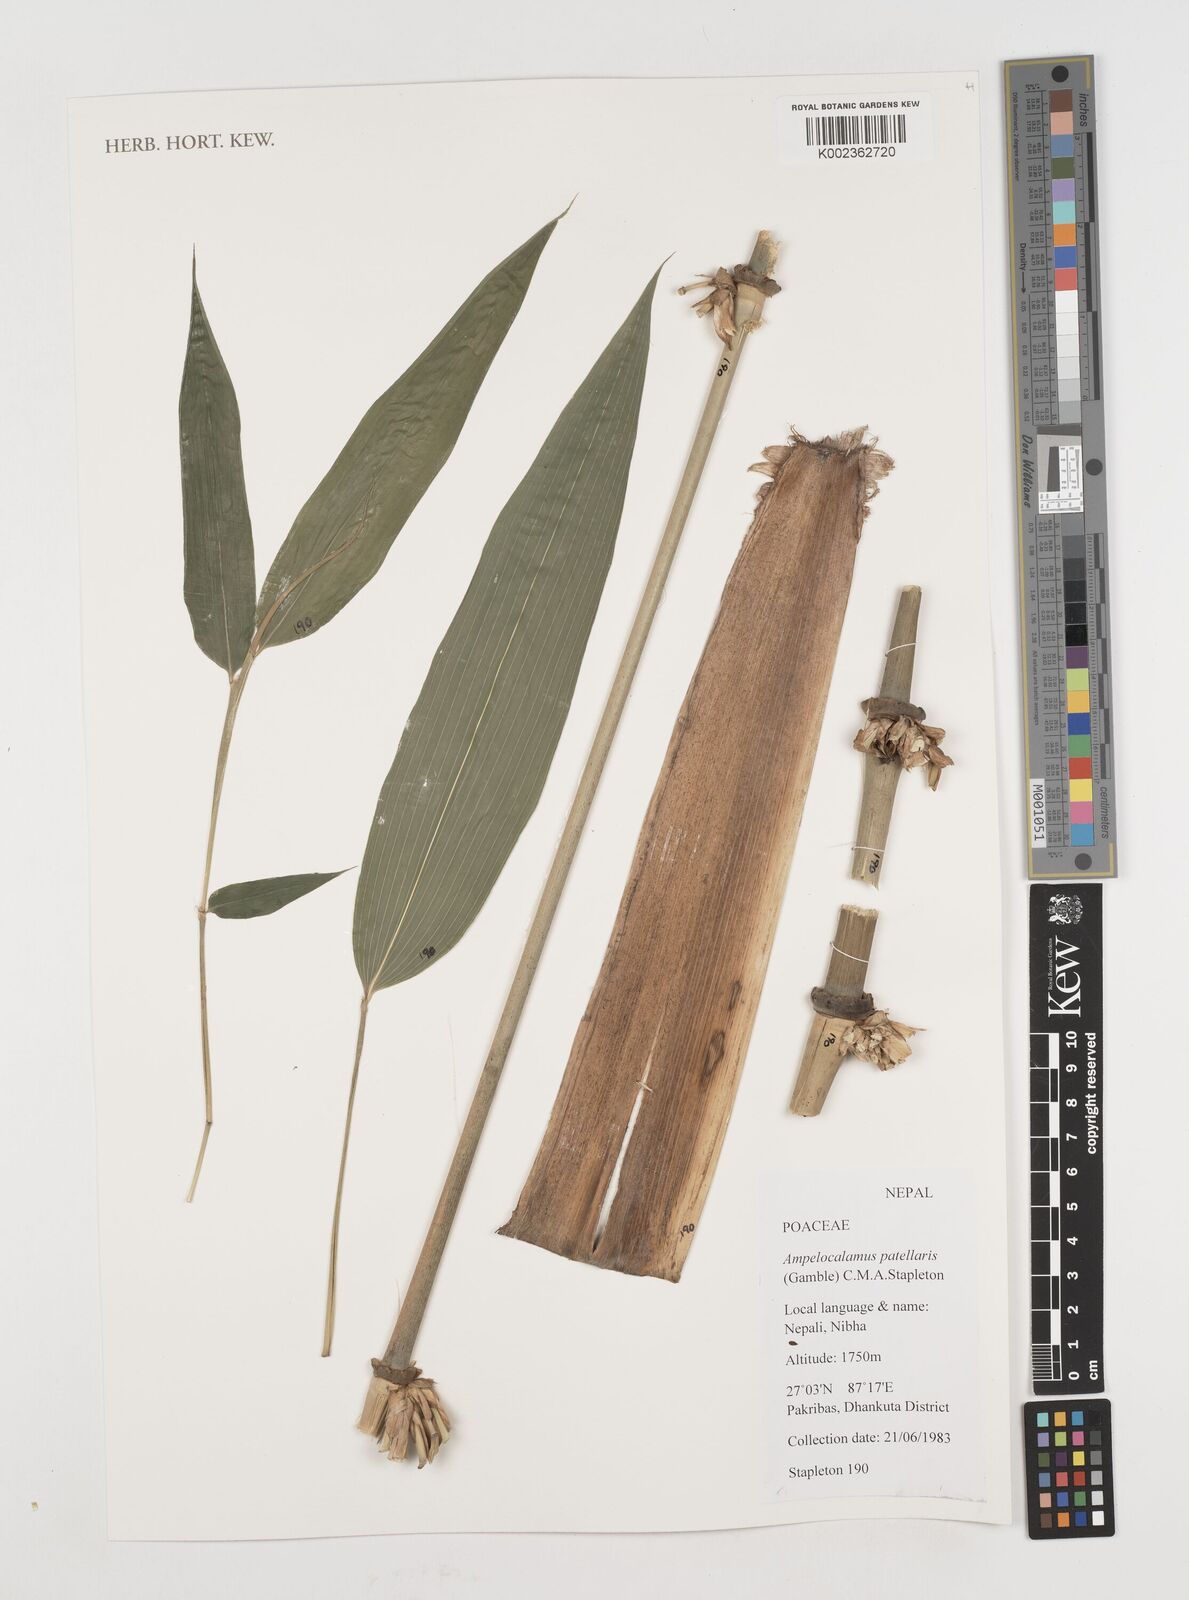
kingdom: Plantae
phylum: Tracheophyta
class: Liliopsida
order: Poales
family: Poaceae
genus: Ampelocalamus
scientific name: Ampelocalamus patellaris
